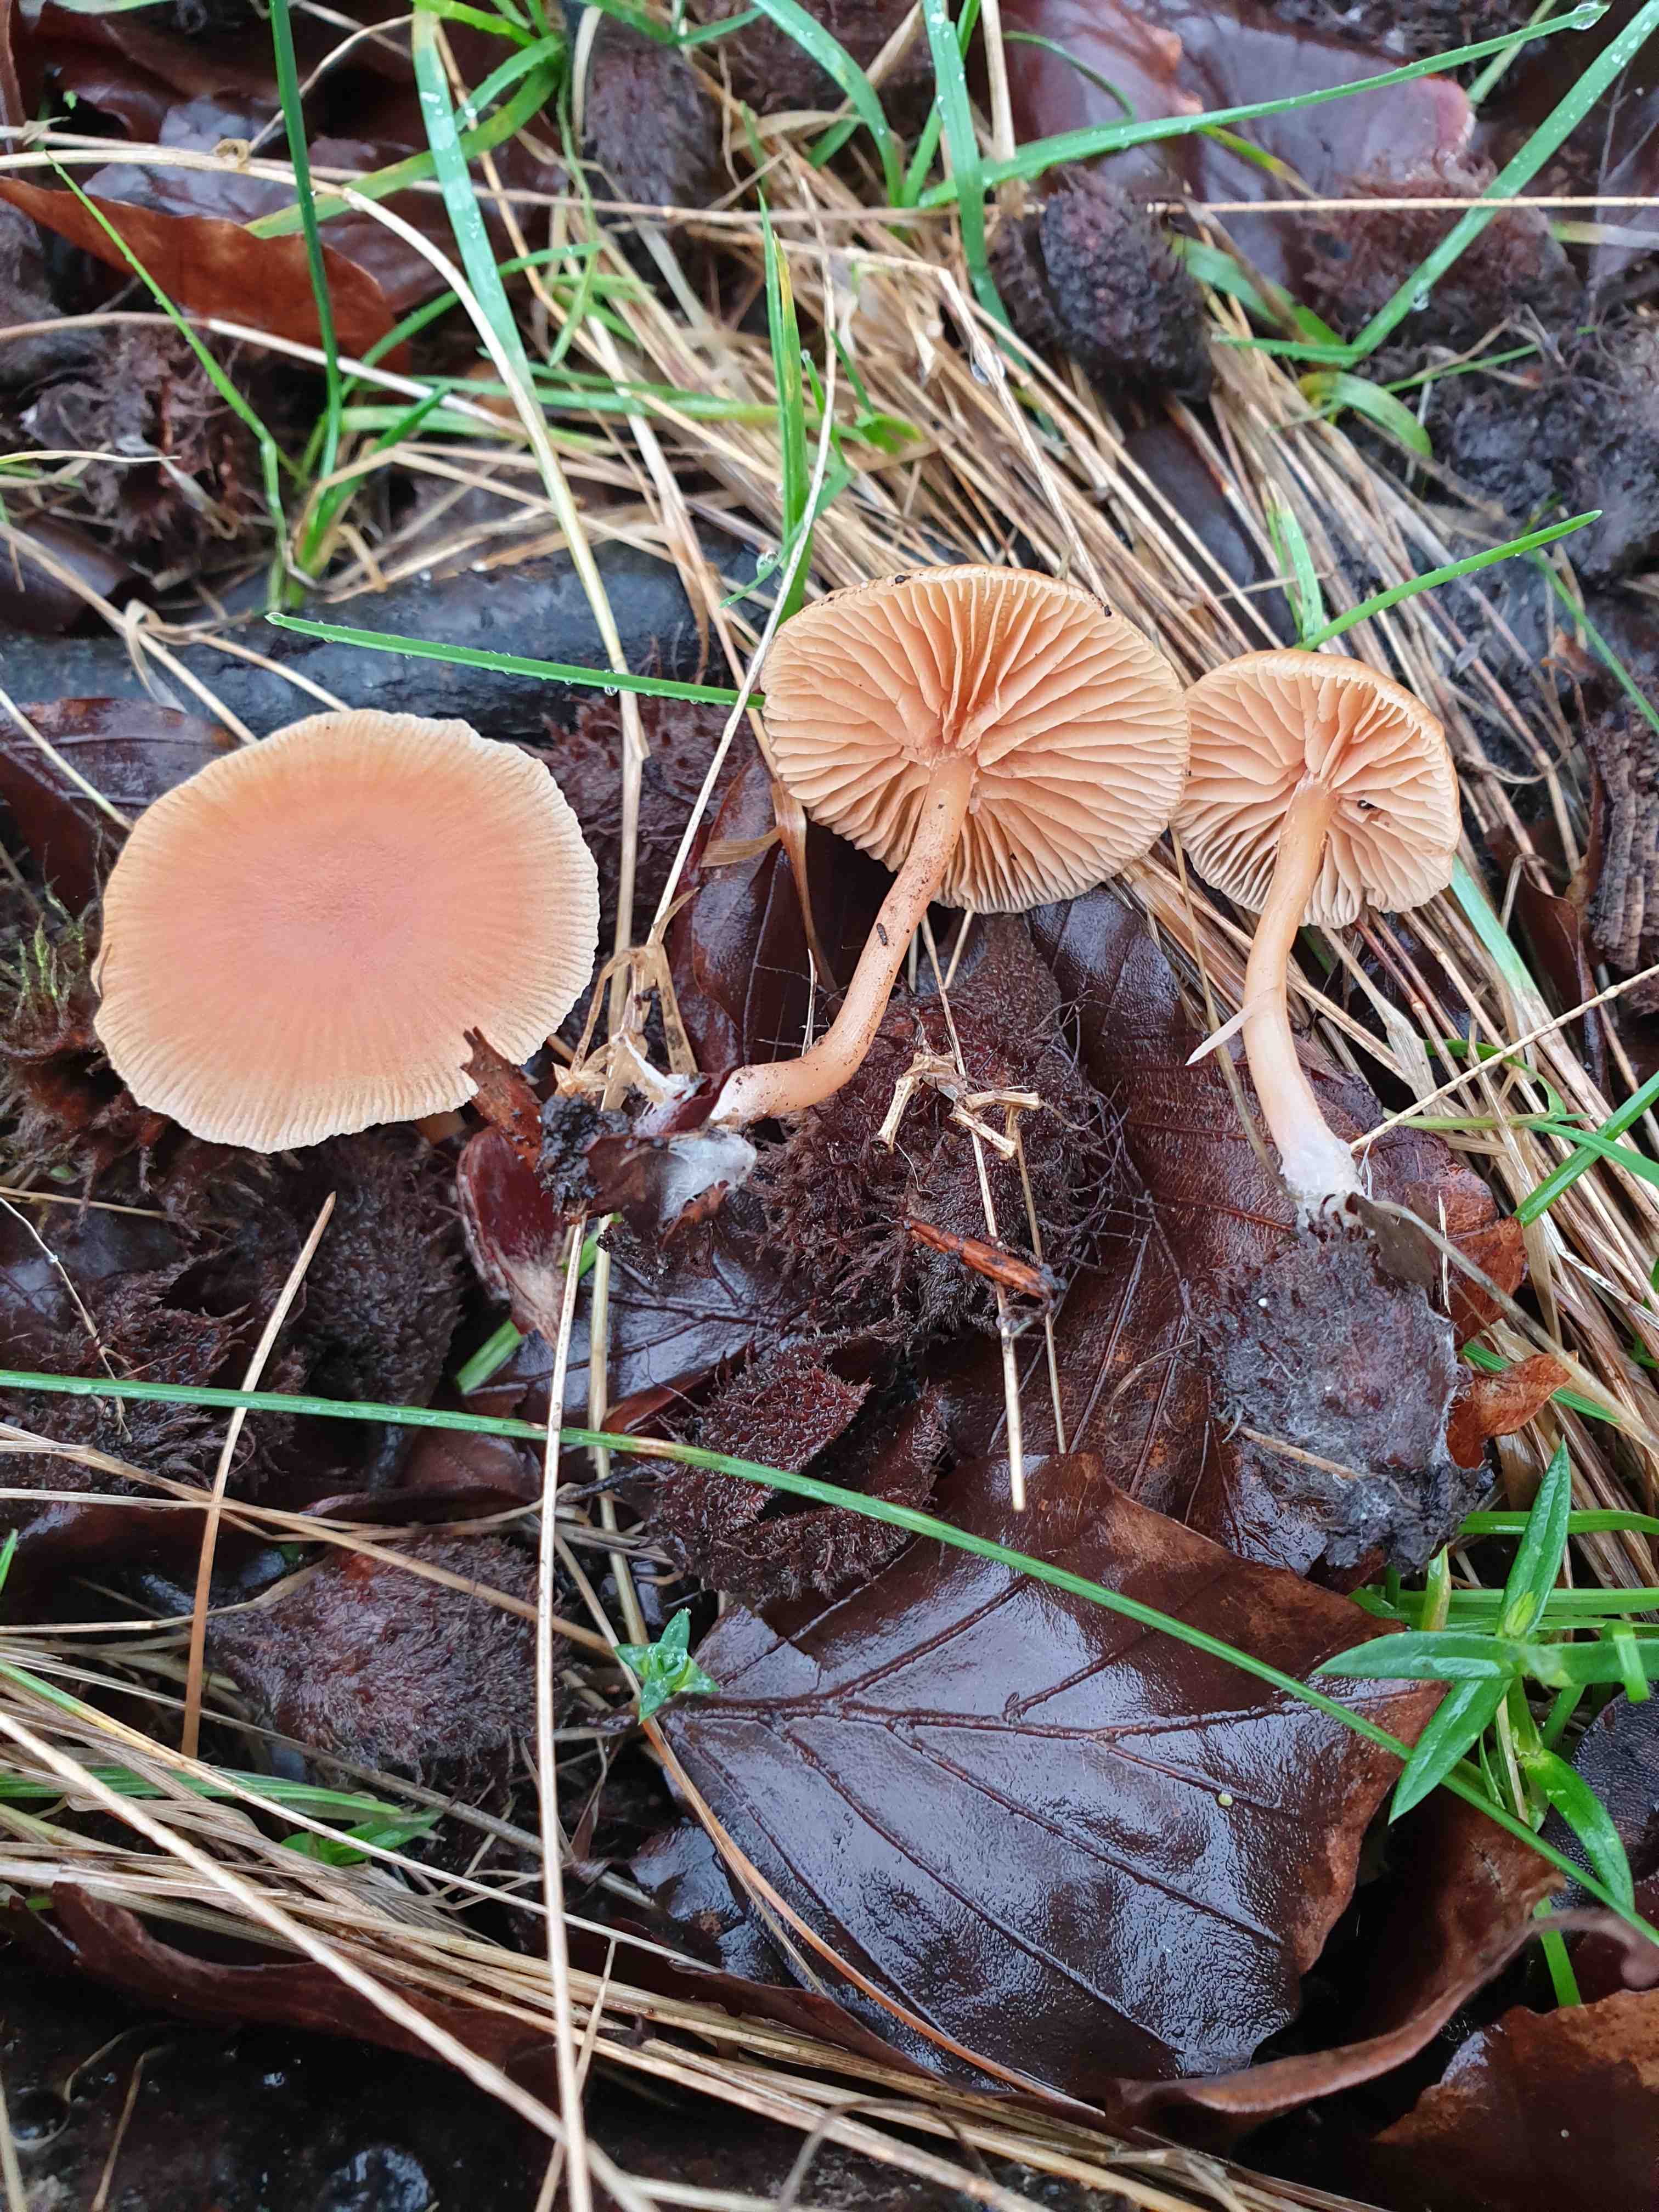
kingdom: Fungi
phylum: Basidiomycota
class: Agaricomycetes
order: Agaricales
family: Tubariaceae
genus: Tubaria
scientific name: Tubaria furfuracea
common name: kliddet fnughat
